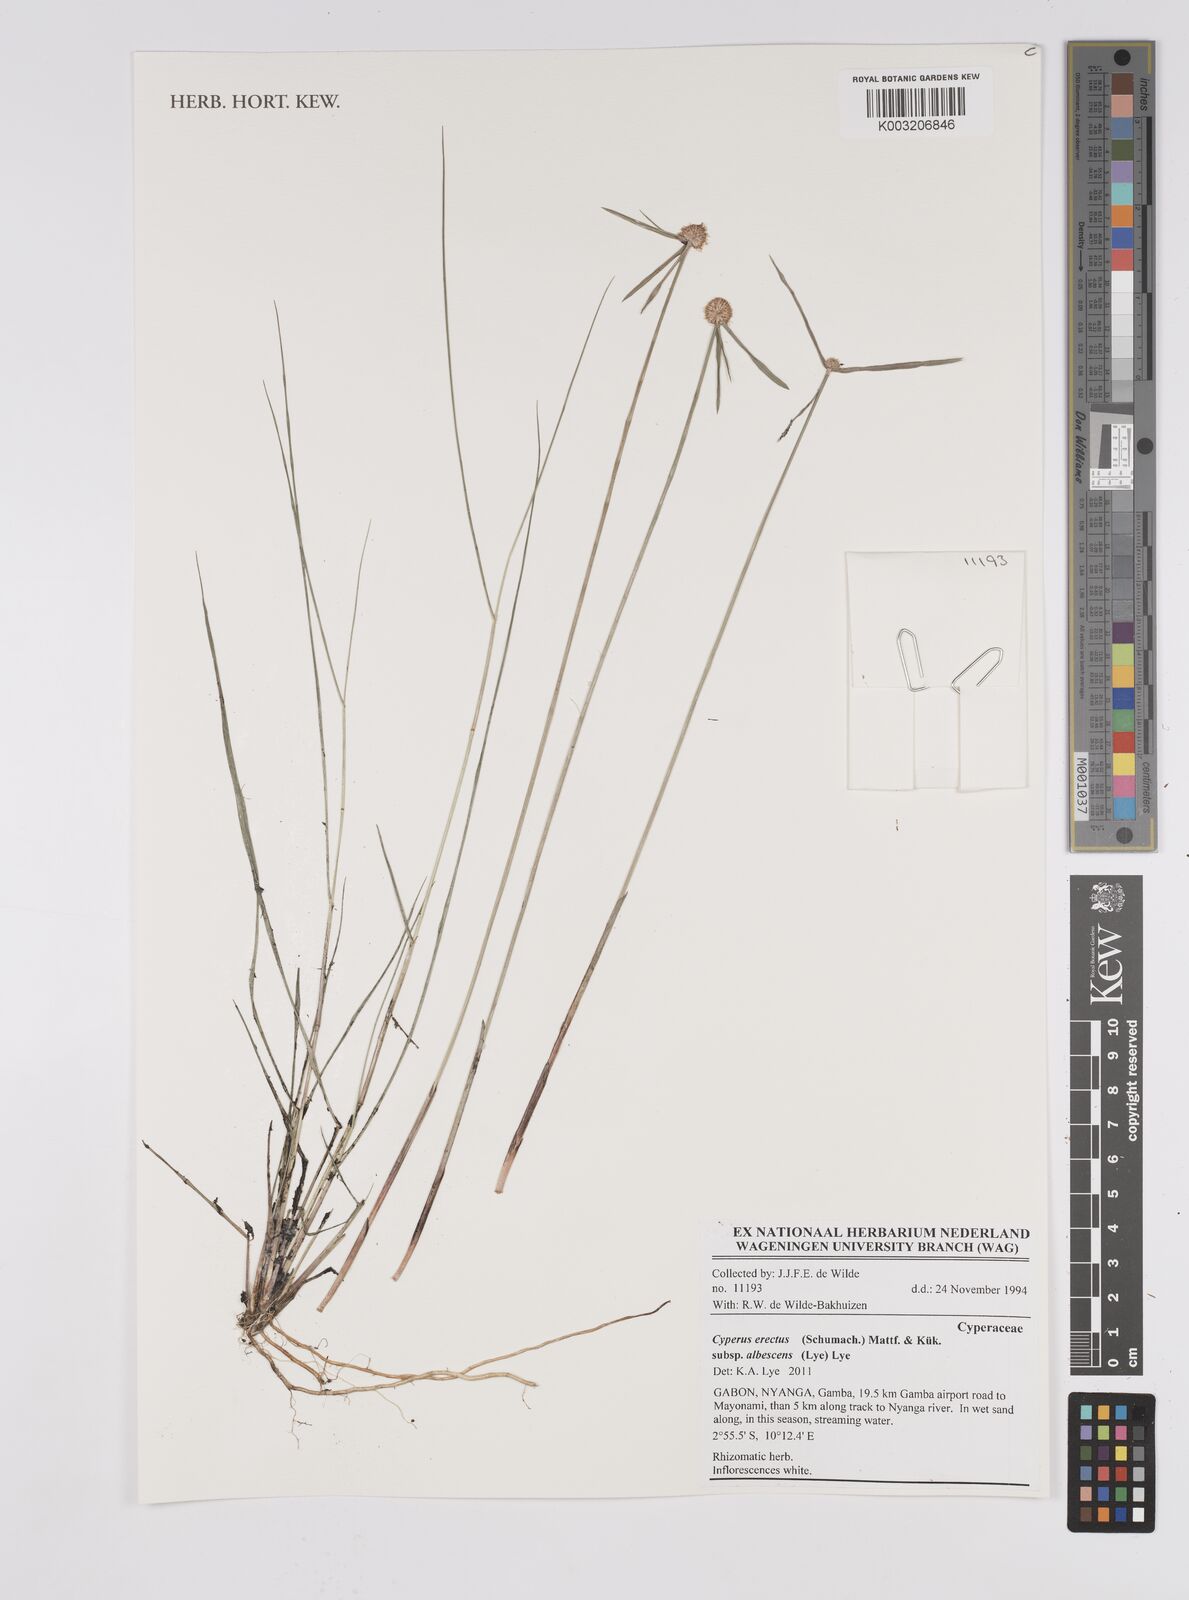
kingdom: Plantae
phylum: Tracheophyta
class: Liliopsida
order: Poales
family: Cyperaceae
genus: Cyperus
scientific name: Cyperus erectus
